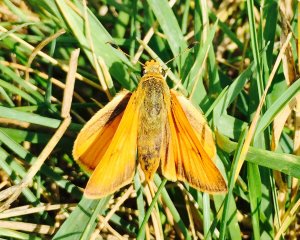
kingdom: Animalia
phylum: Arthropoda
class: Insecta
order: Lepidoptera
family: Hesperiidae
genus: Atrytone
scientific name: Atrytone delaware
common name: Delaware Skipper
